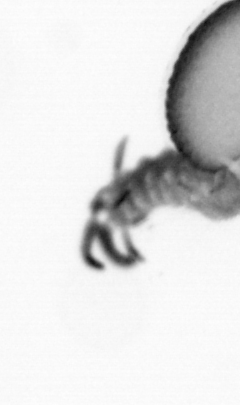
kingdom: Animalia
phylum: Annelida
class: Polychaeta
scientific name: Polychaeta
